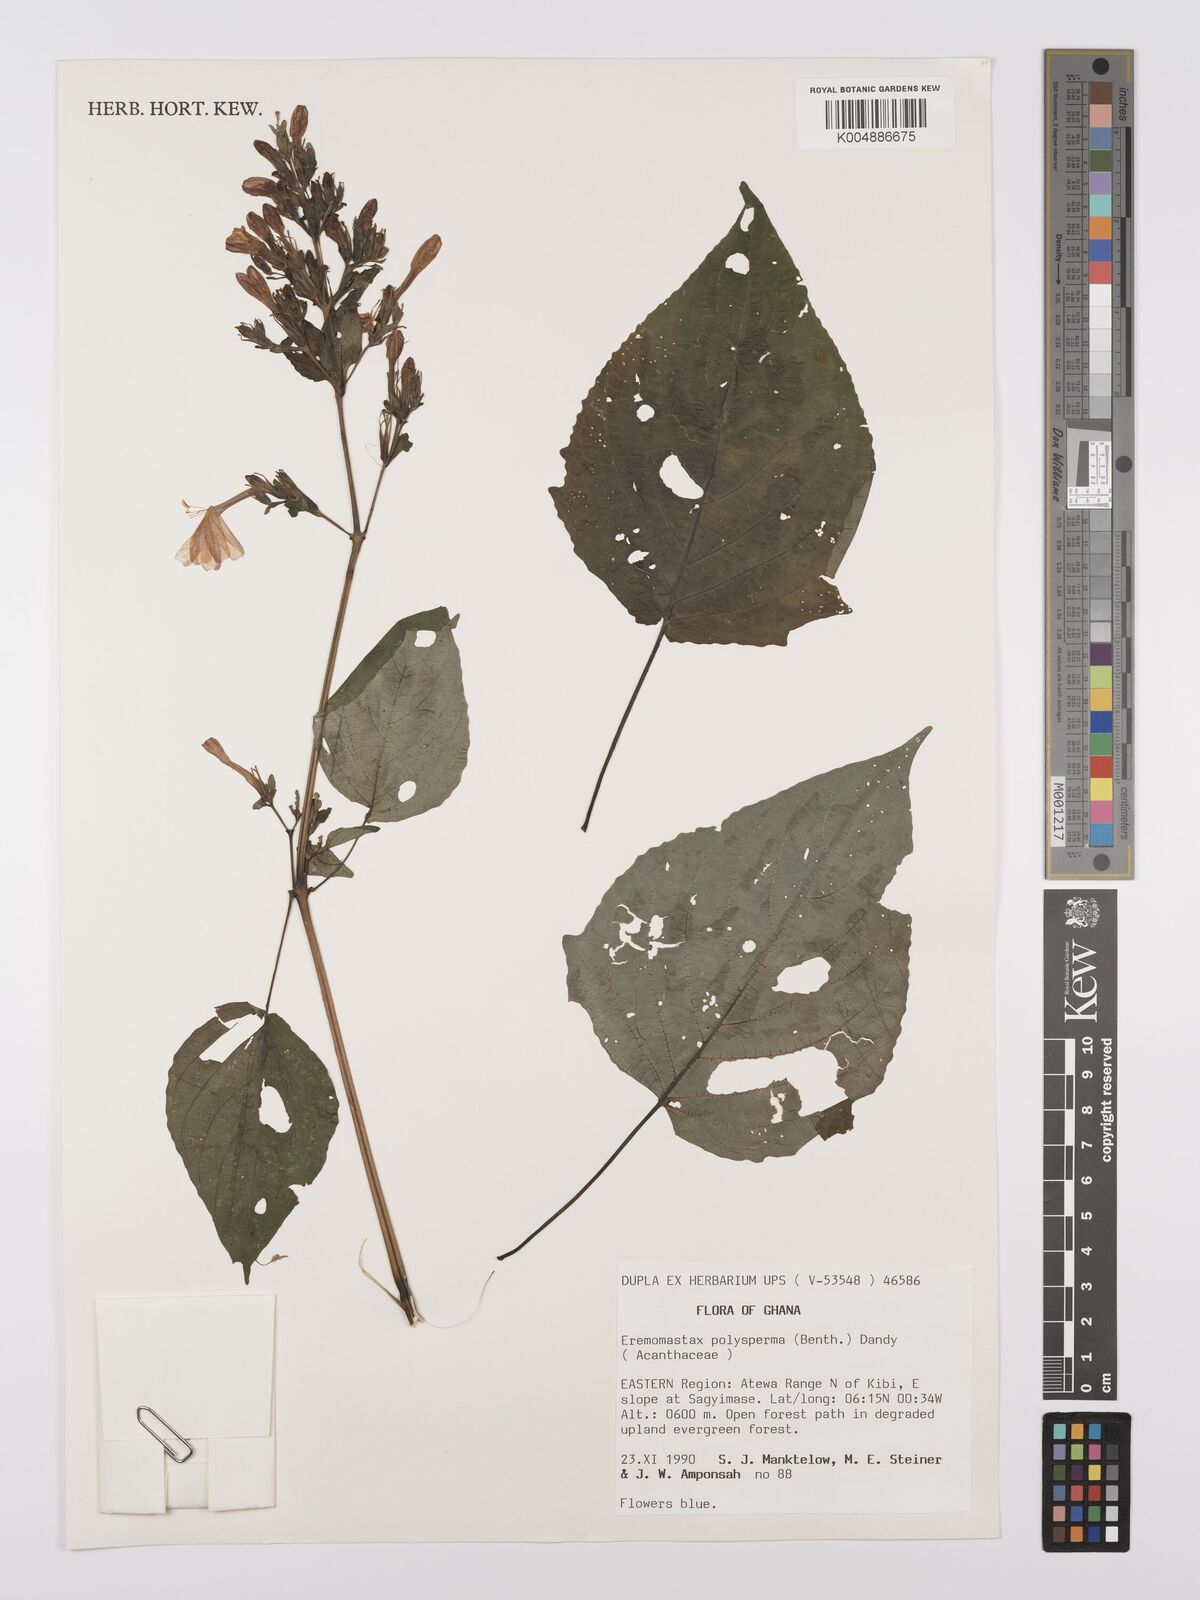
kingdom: Plantae
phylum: Tracheophyta
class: Magnoliopsida
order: Lamiales
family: Acanthaceae
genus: Eremomastax
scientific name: Eremomastax speciosa
